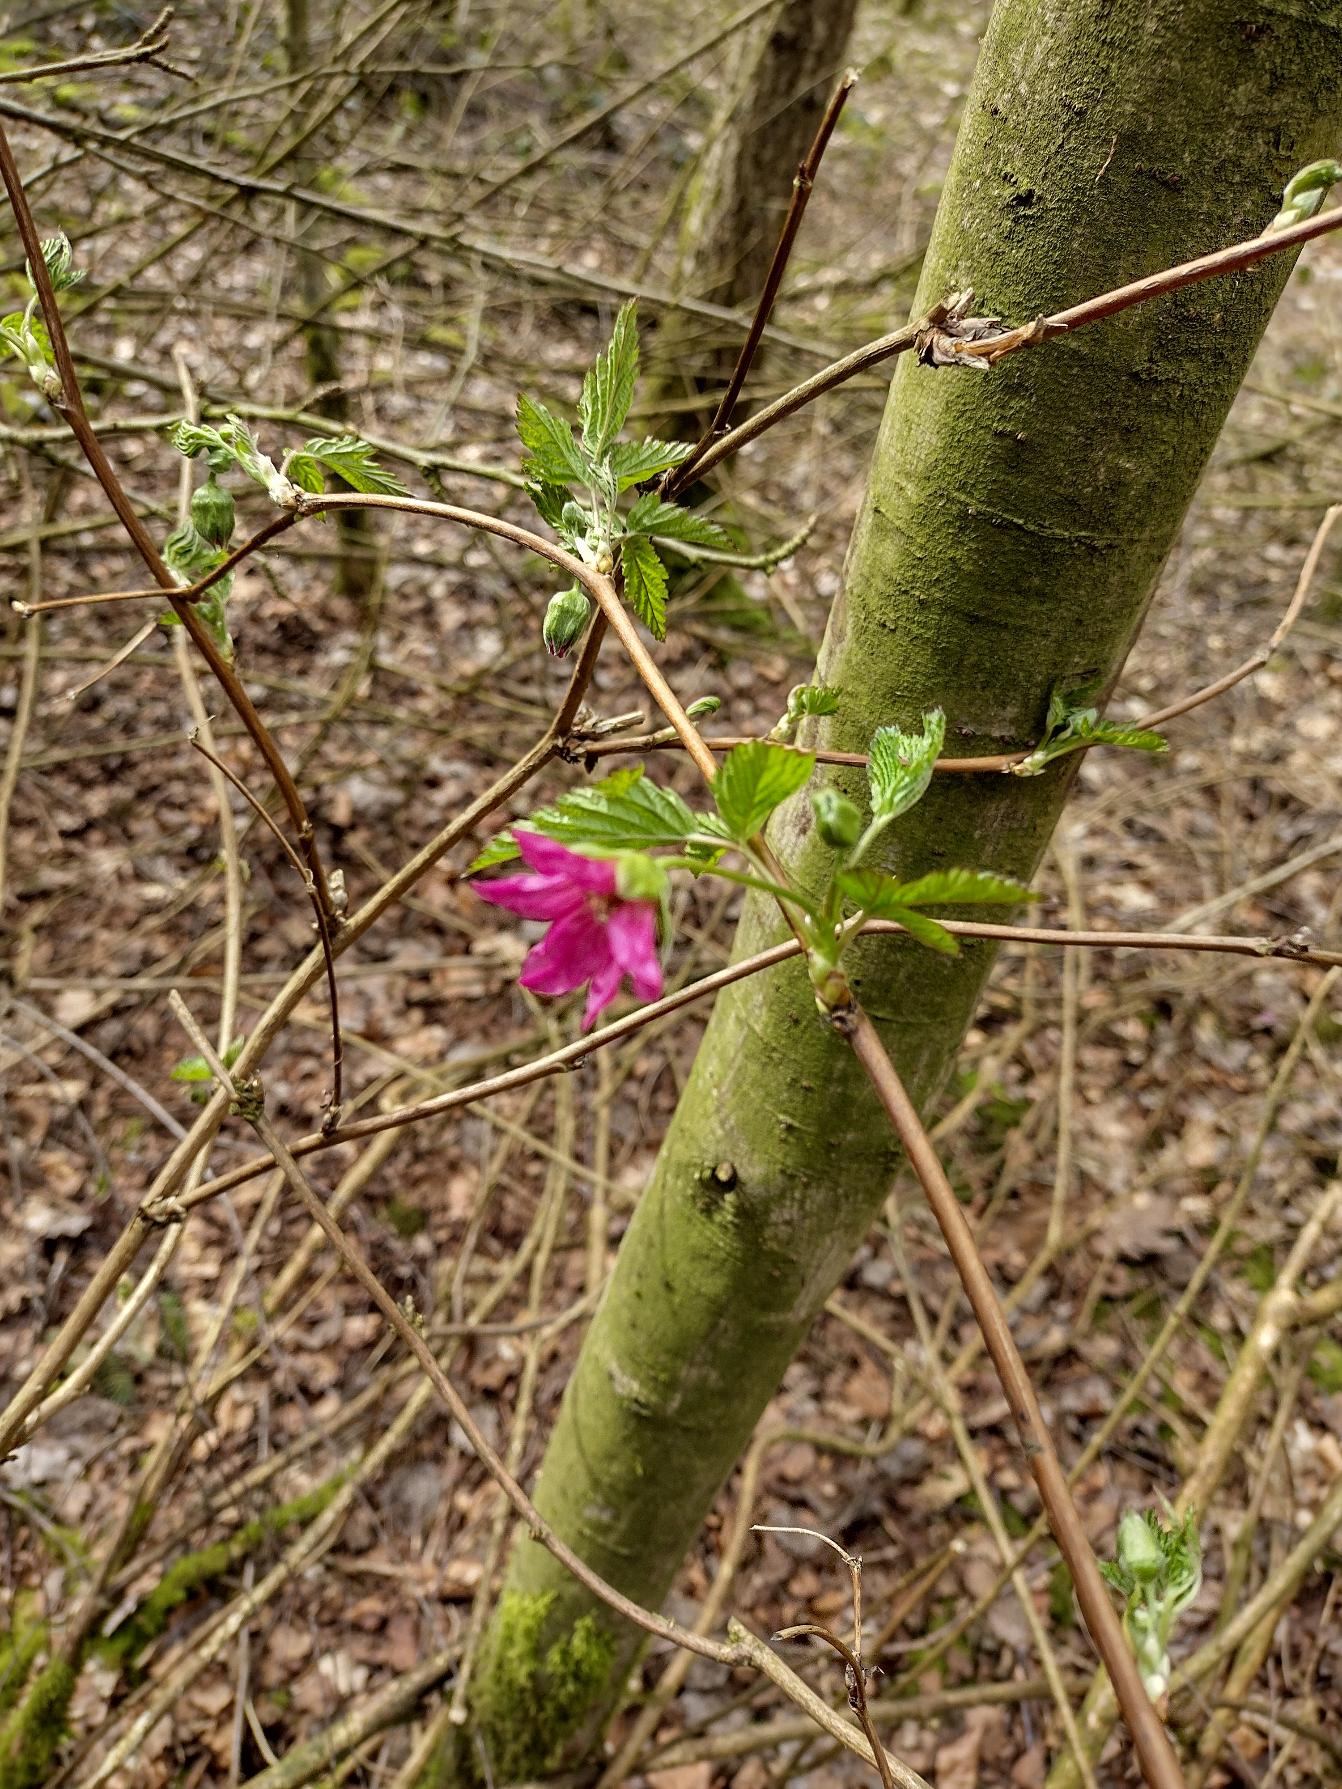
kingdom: Plantae
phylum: Tracheophyta
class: Magnoliopsida
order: Rosales
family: Rosaceae
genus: Rubus
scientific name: Rubus spectabilis
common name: Laksebær
